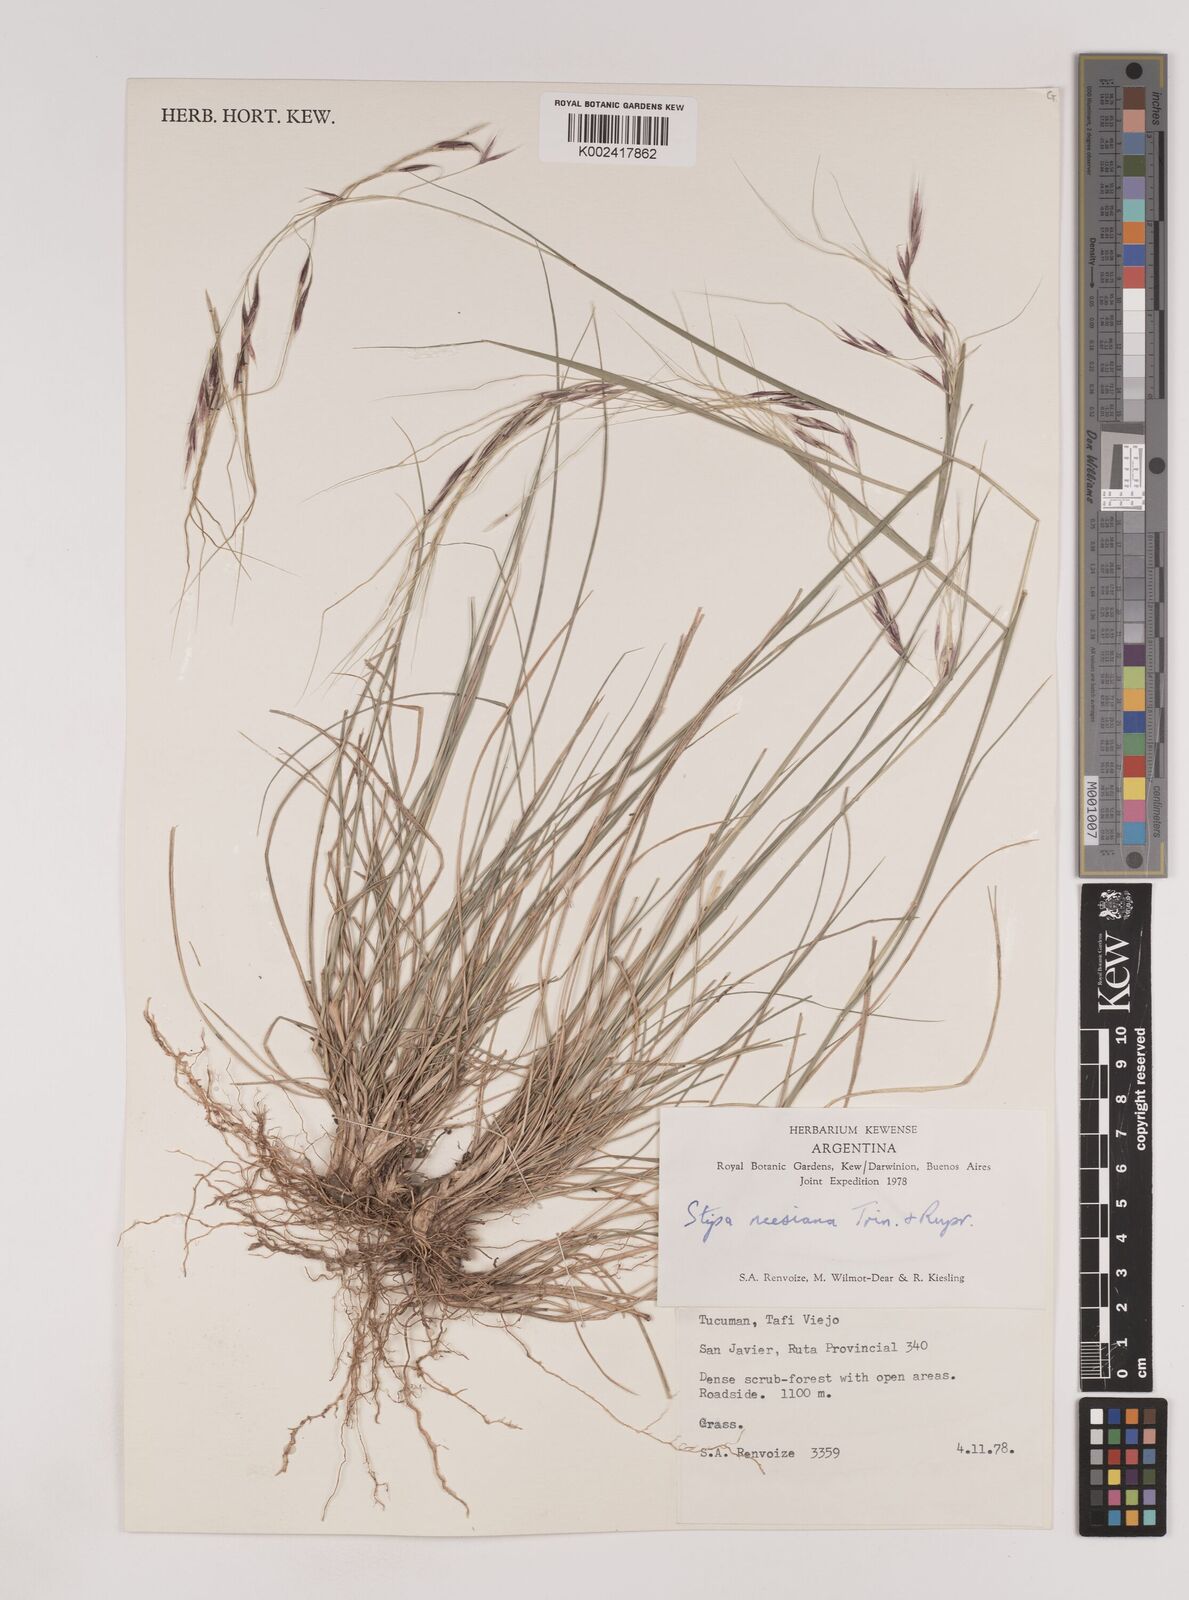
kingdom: Plantae
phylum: Tracheophyta
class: Liliopsida
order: Poales
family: Poaceae
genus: Nassella
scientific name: Nassella neesiana
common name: American needle-grass
